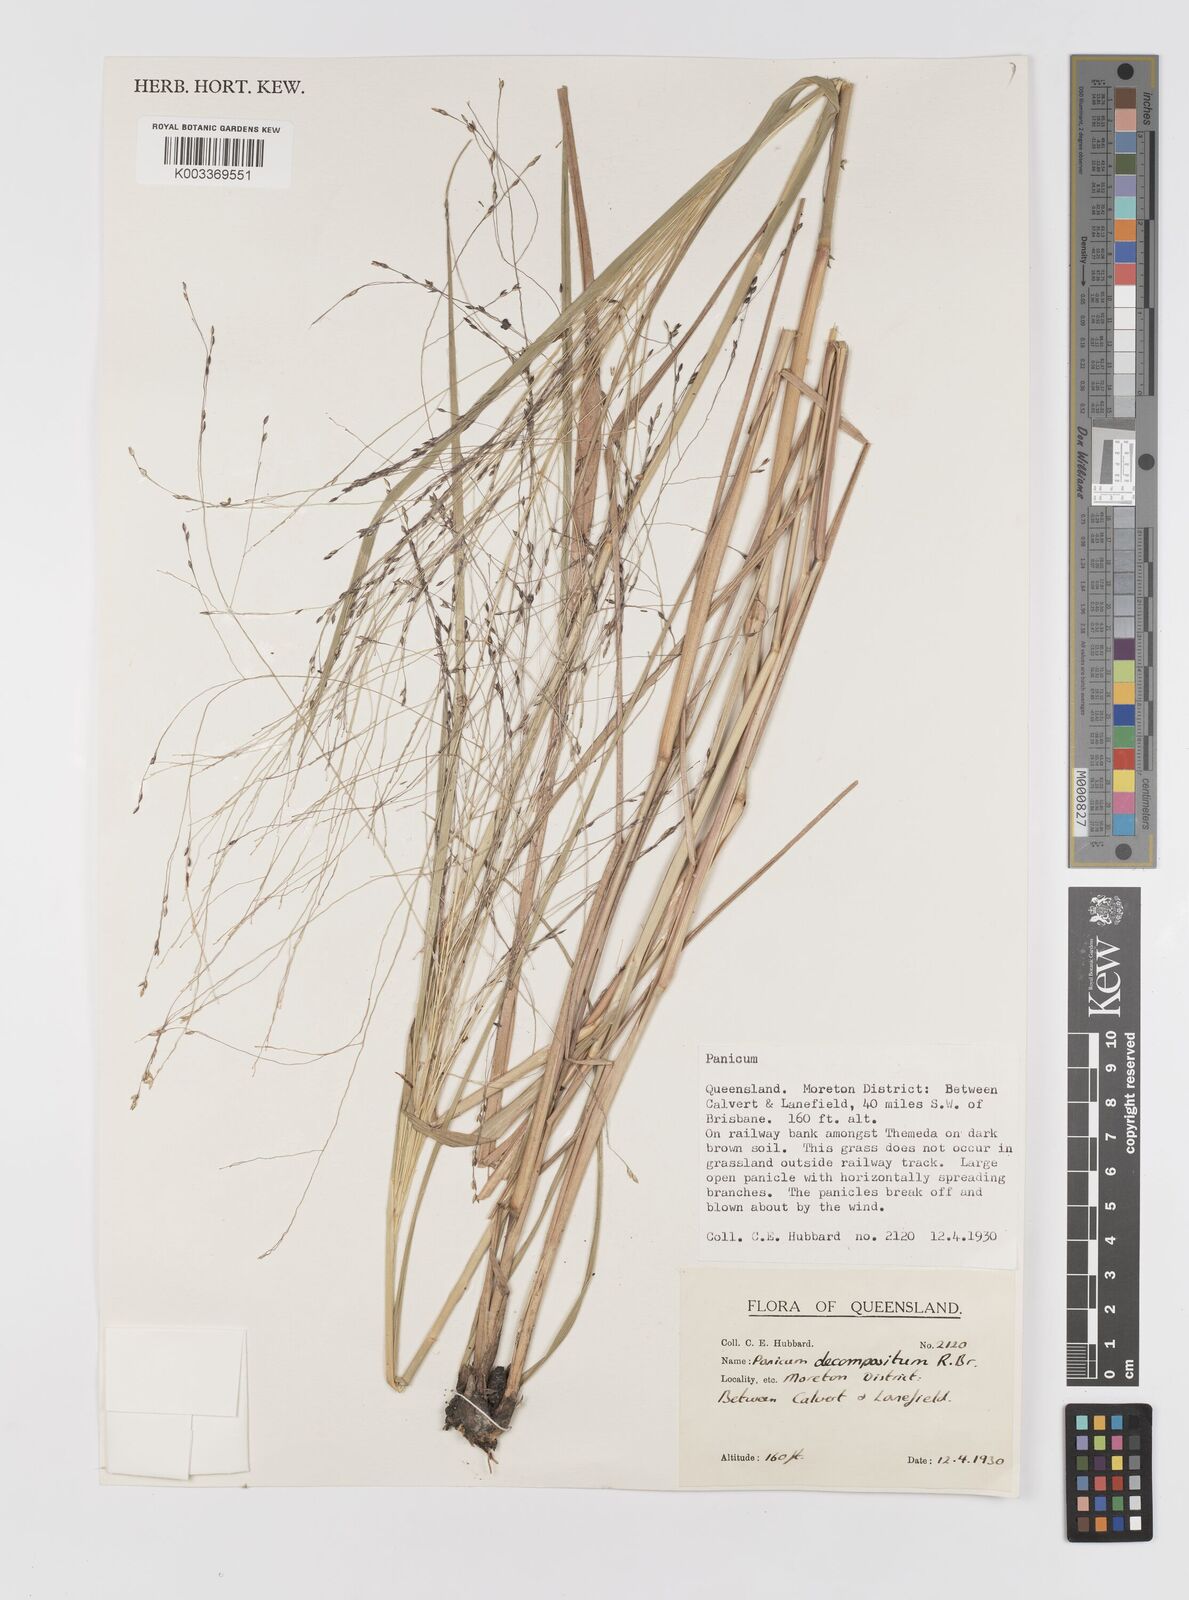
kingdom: Plantae
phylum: Tracheophyta
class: Liliopsida
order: Poales
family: Poaceae
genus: Panicum
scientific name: Panicum decompositum
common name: Australian millet
